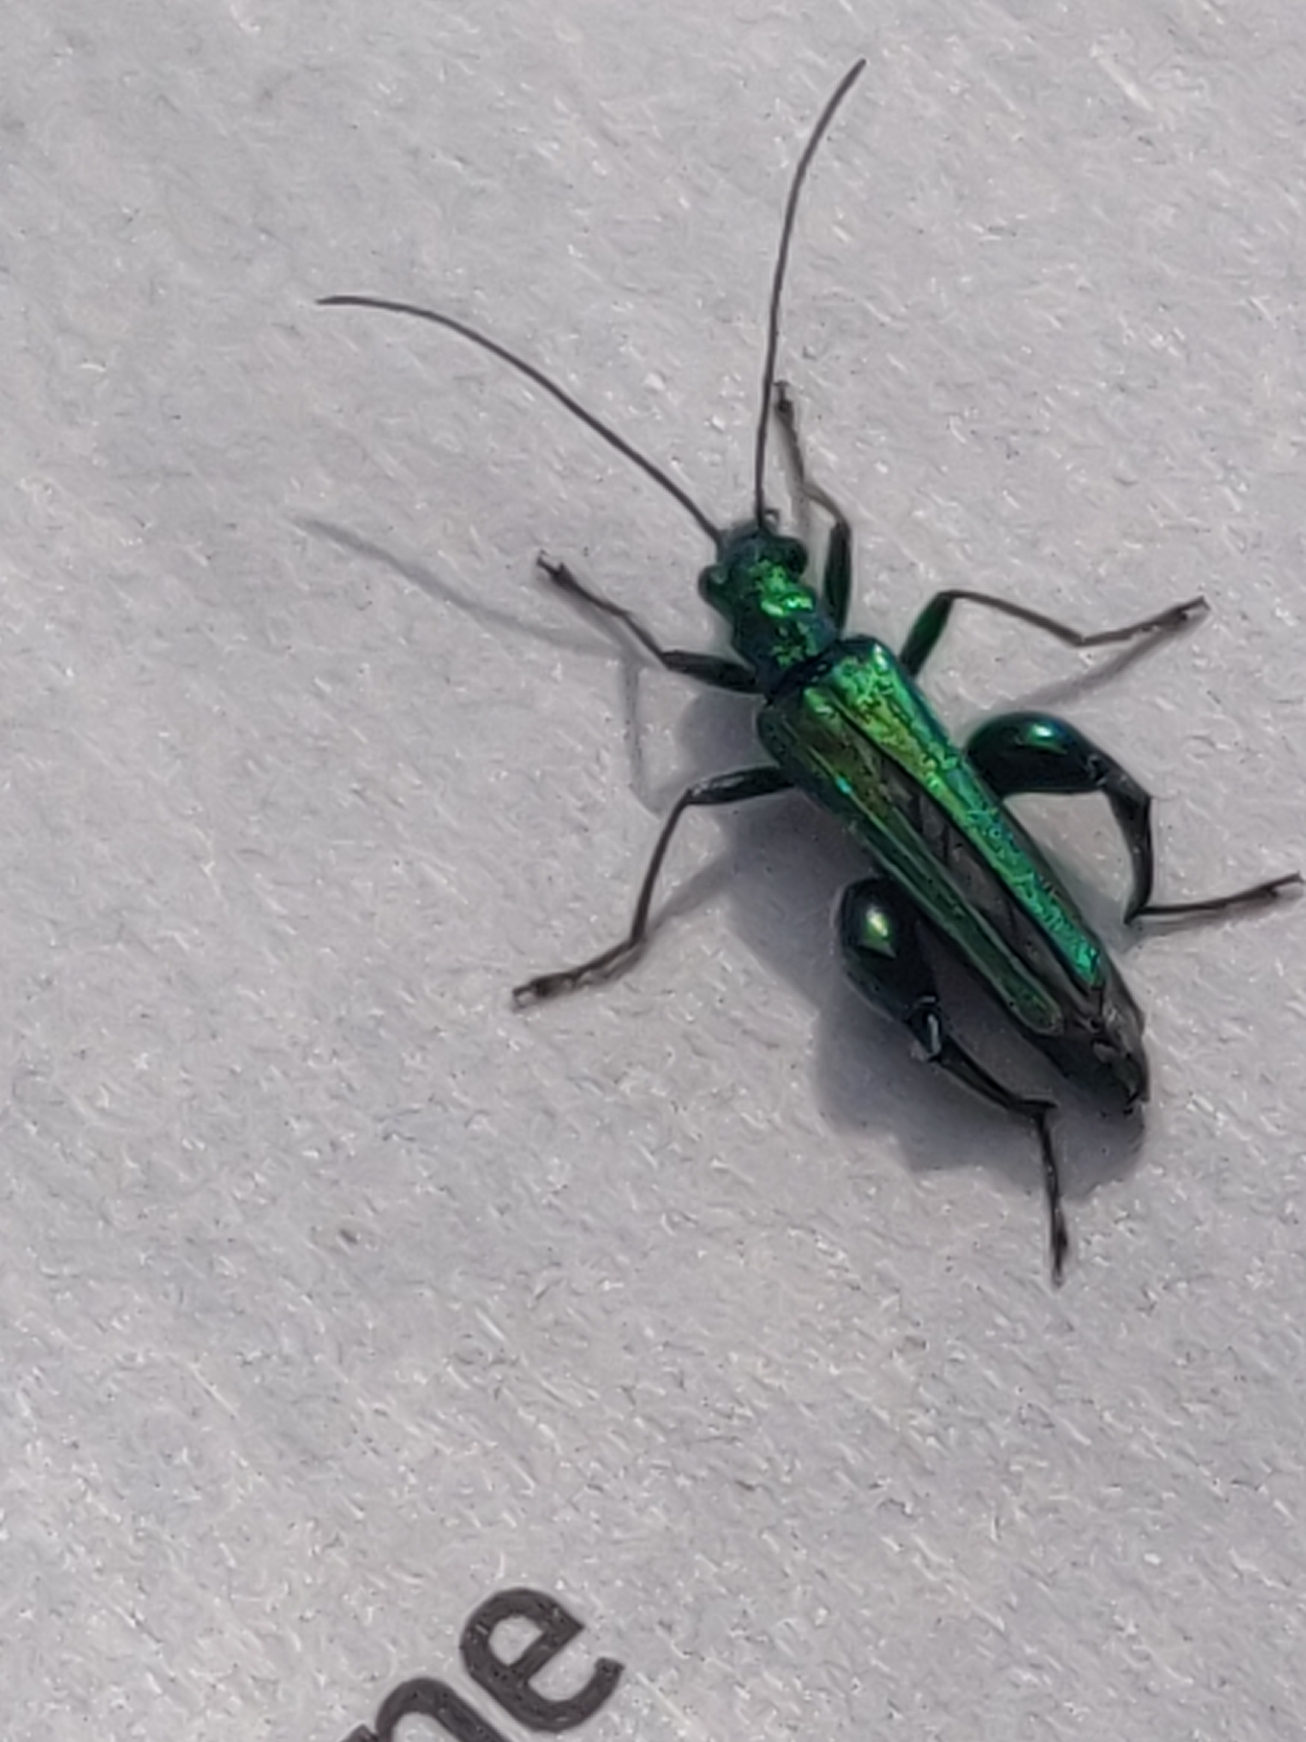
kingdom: Animalia
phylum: Arthropoda
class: Insecta
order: Coleoptera
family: Oedemeridae
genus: Oedemera
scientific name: Oedemera nobilis
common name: Tyklårssolbille
